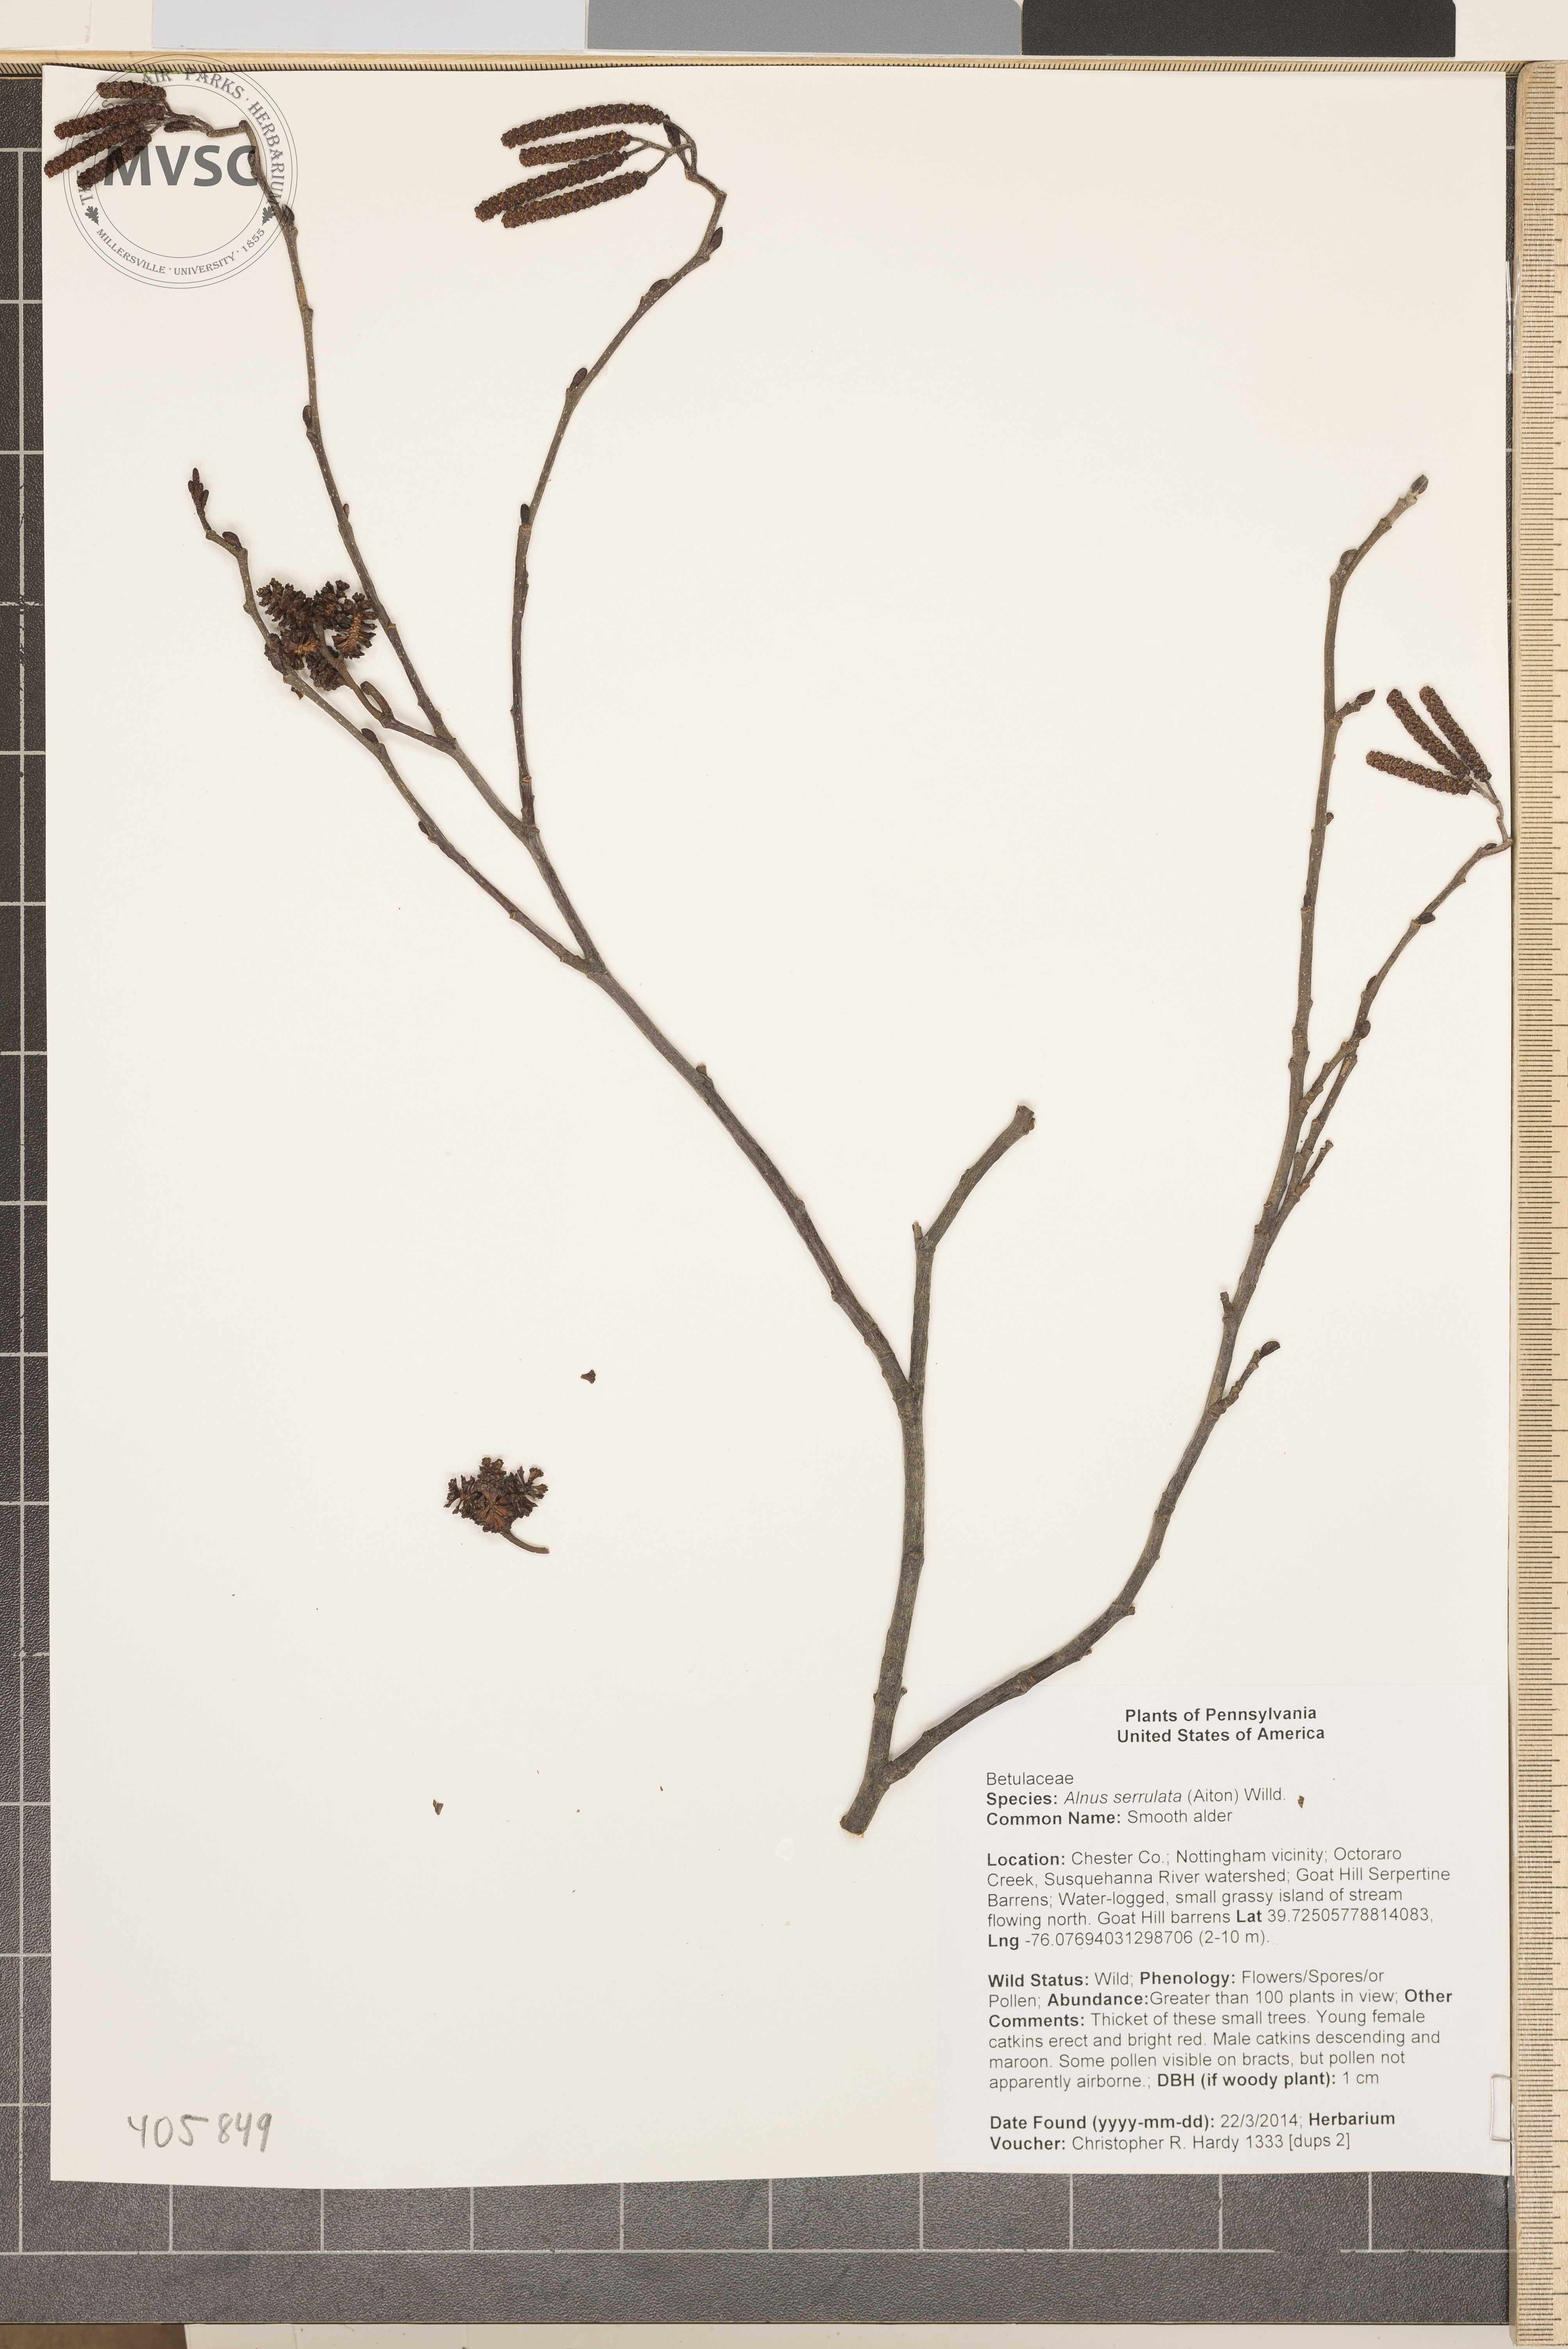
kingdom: Plantae
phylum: Tracheophyta
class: Magnoliopsida
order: Fagales
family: Betulaceae
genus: Alnus
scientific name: Alnus serrulata
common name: Smooth alder
